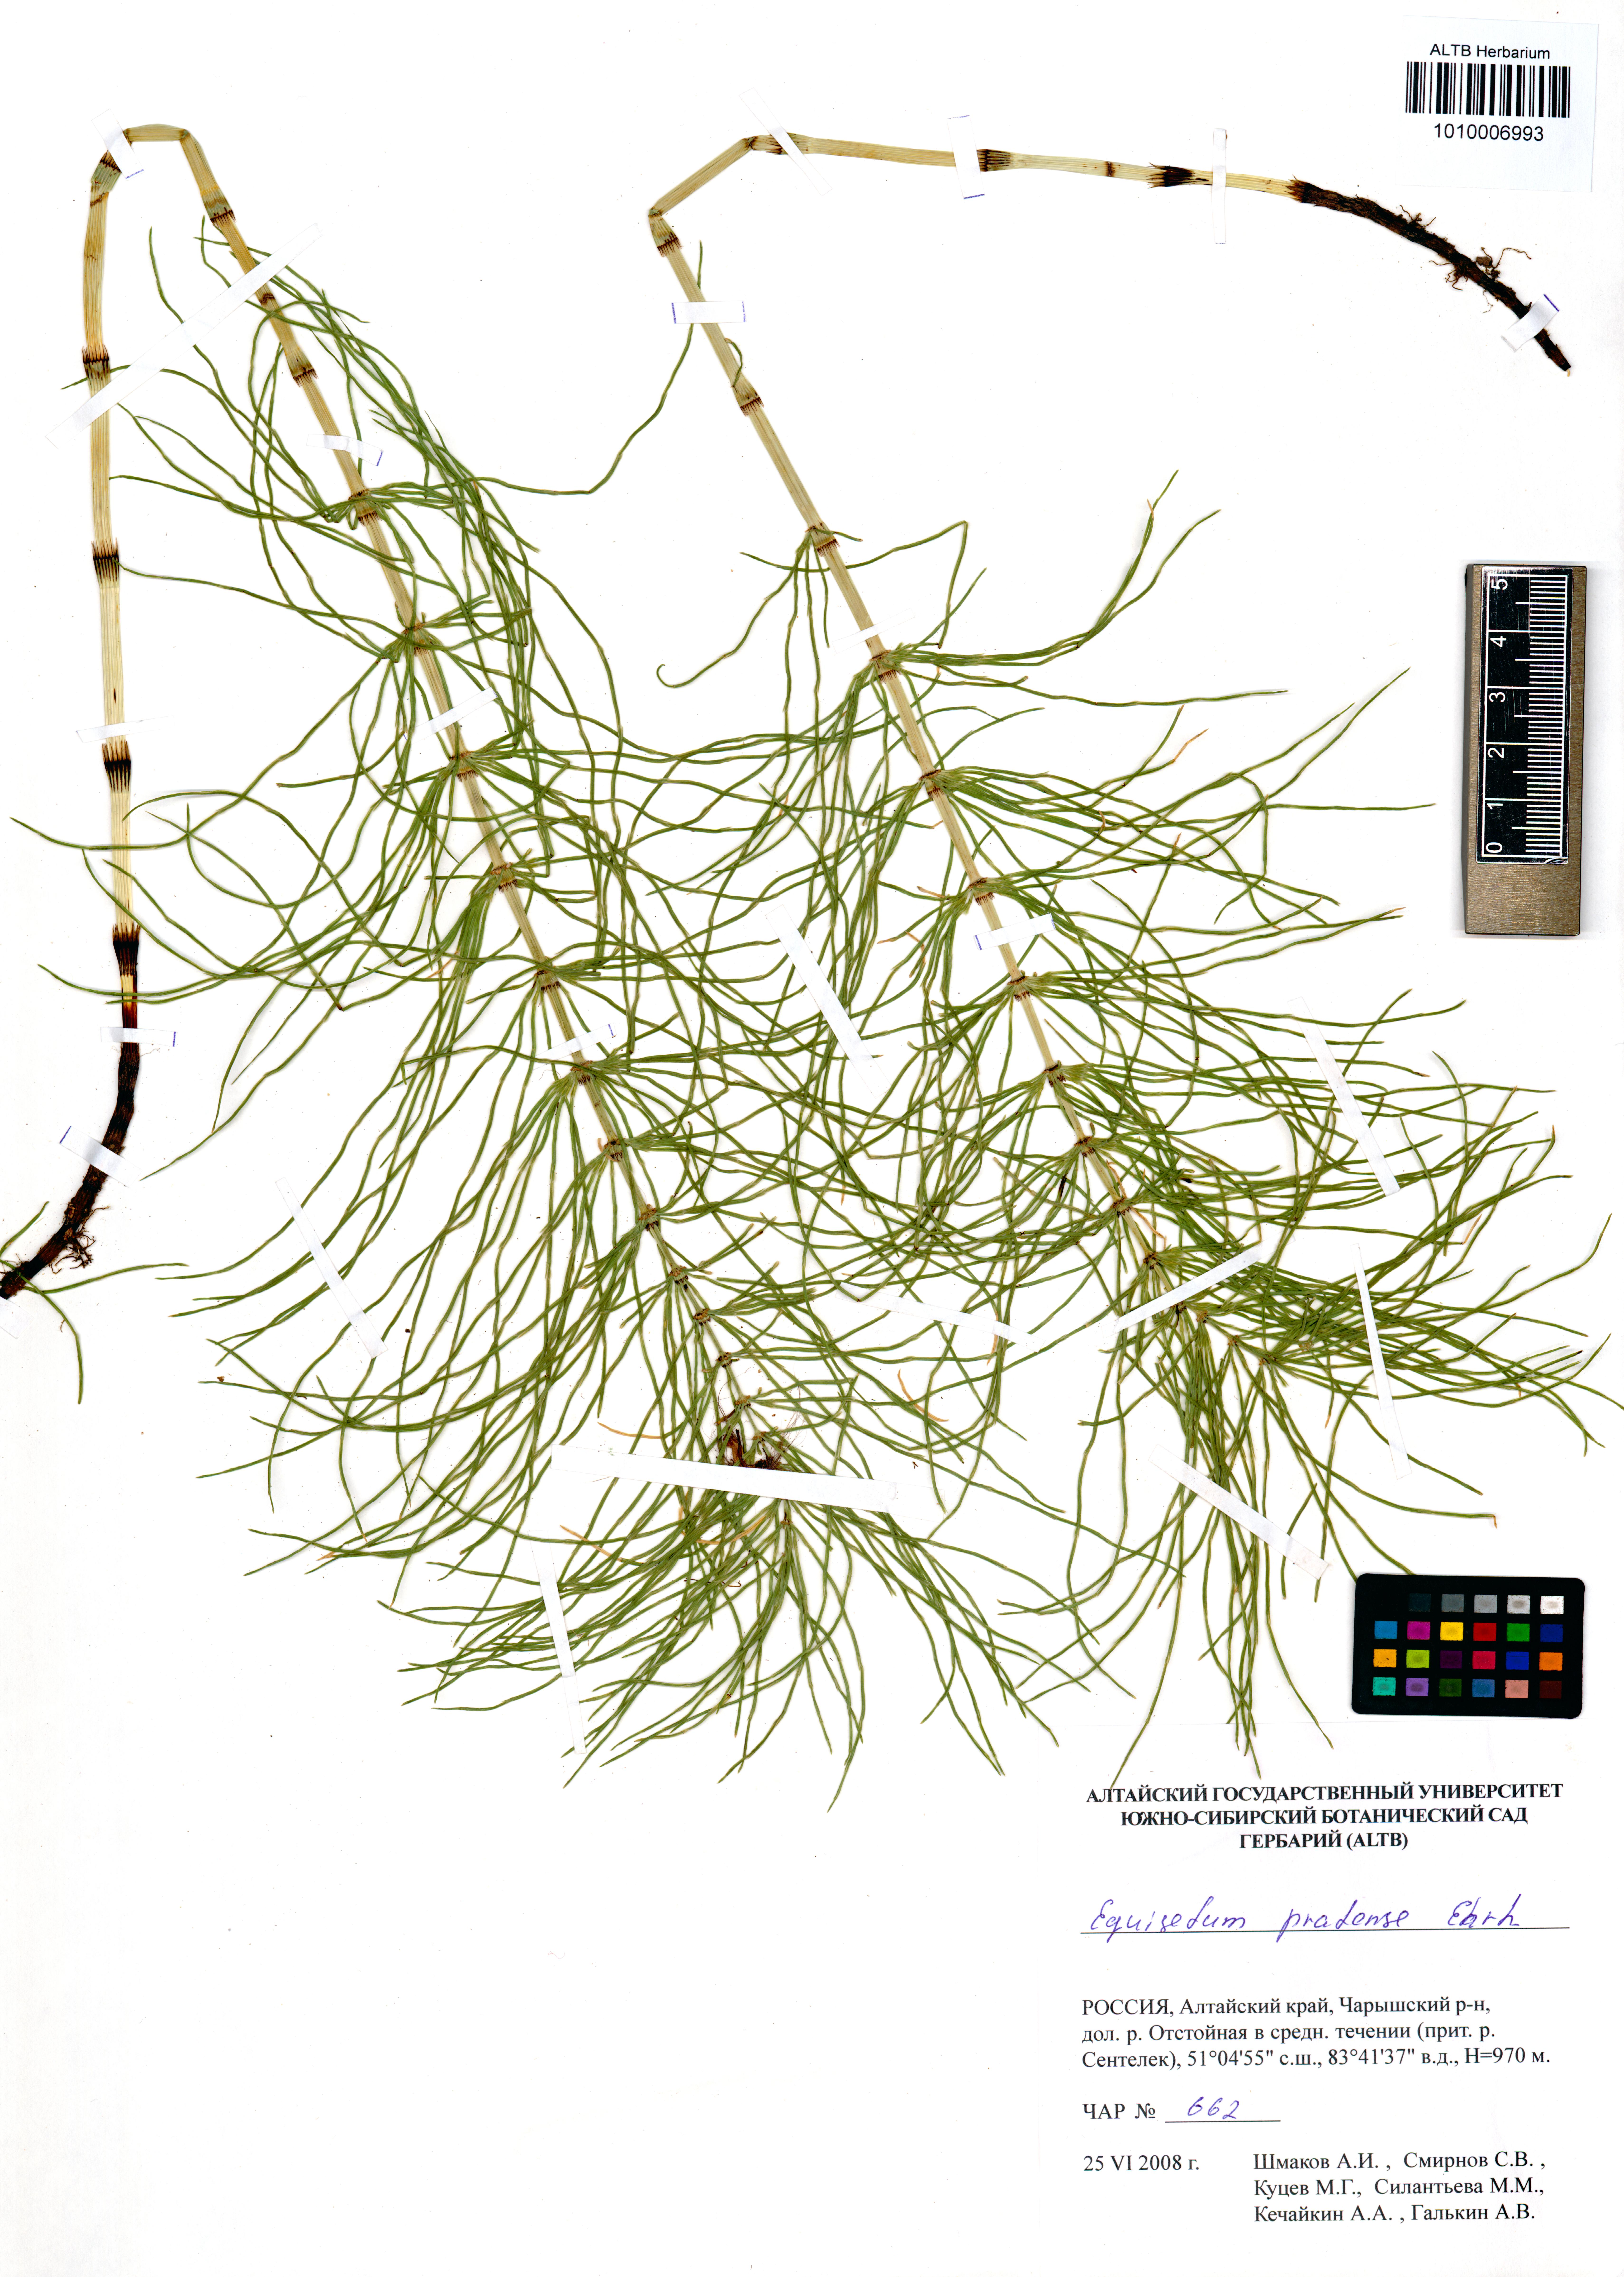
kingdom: Plantae
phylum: Tracheophyta
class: Polypodiopsida
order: Equisetales
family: Equisetaceae
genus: Equisetum
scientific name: Equisetum pratense
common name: Meadow horsetail
